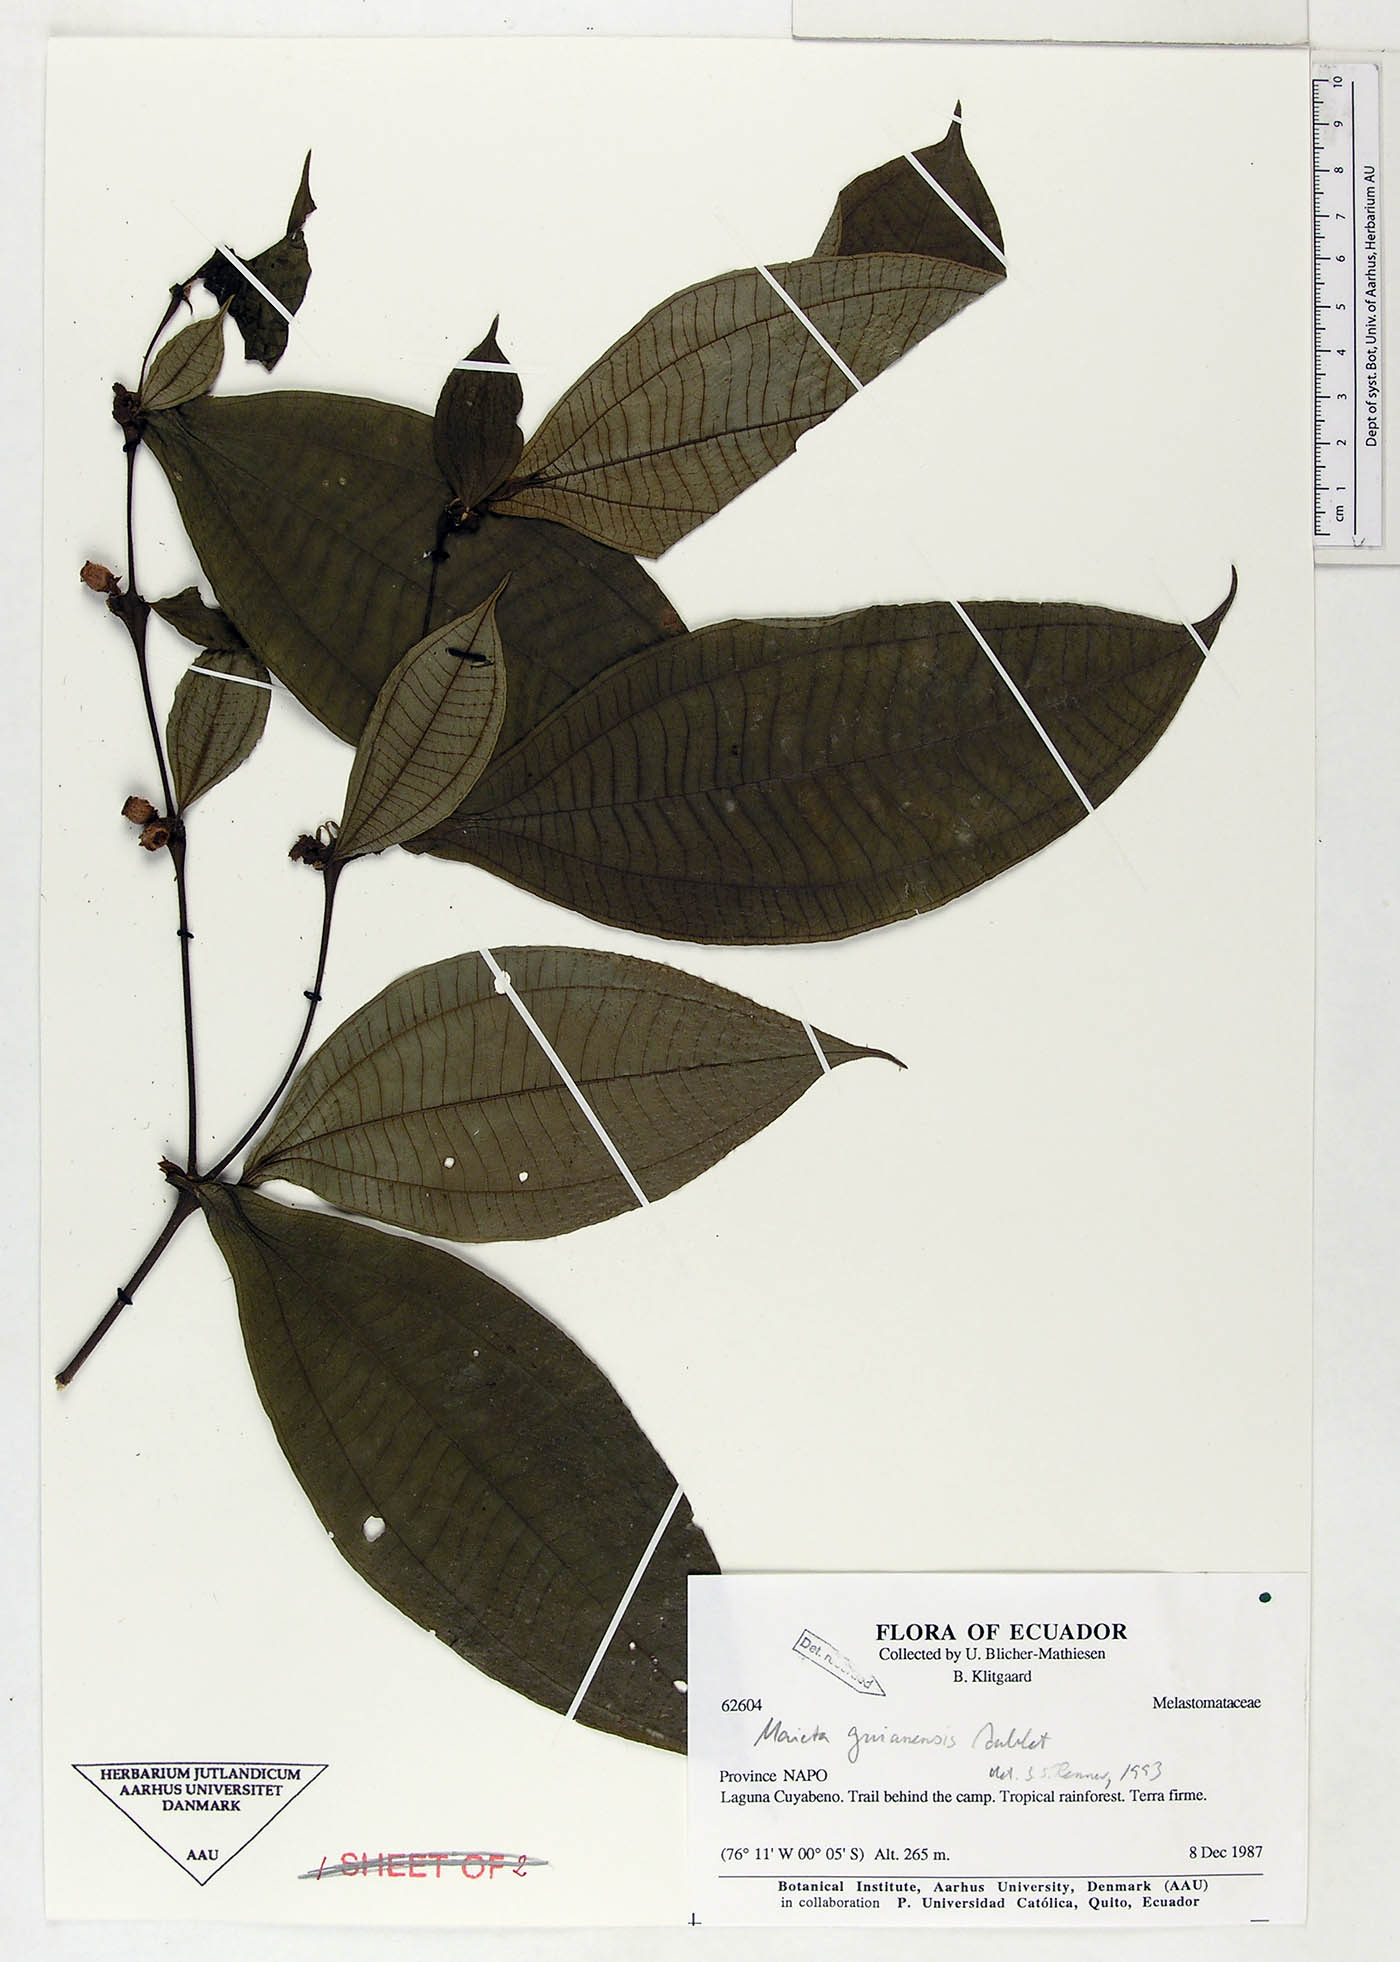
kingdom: Plantae
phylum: Tracheophyta
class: Magnoliopsida
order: Myrtales
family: Melastomataceae
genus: Miconia
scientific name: Miconia mayeta
